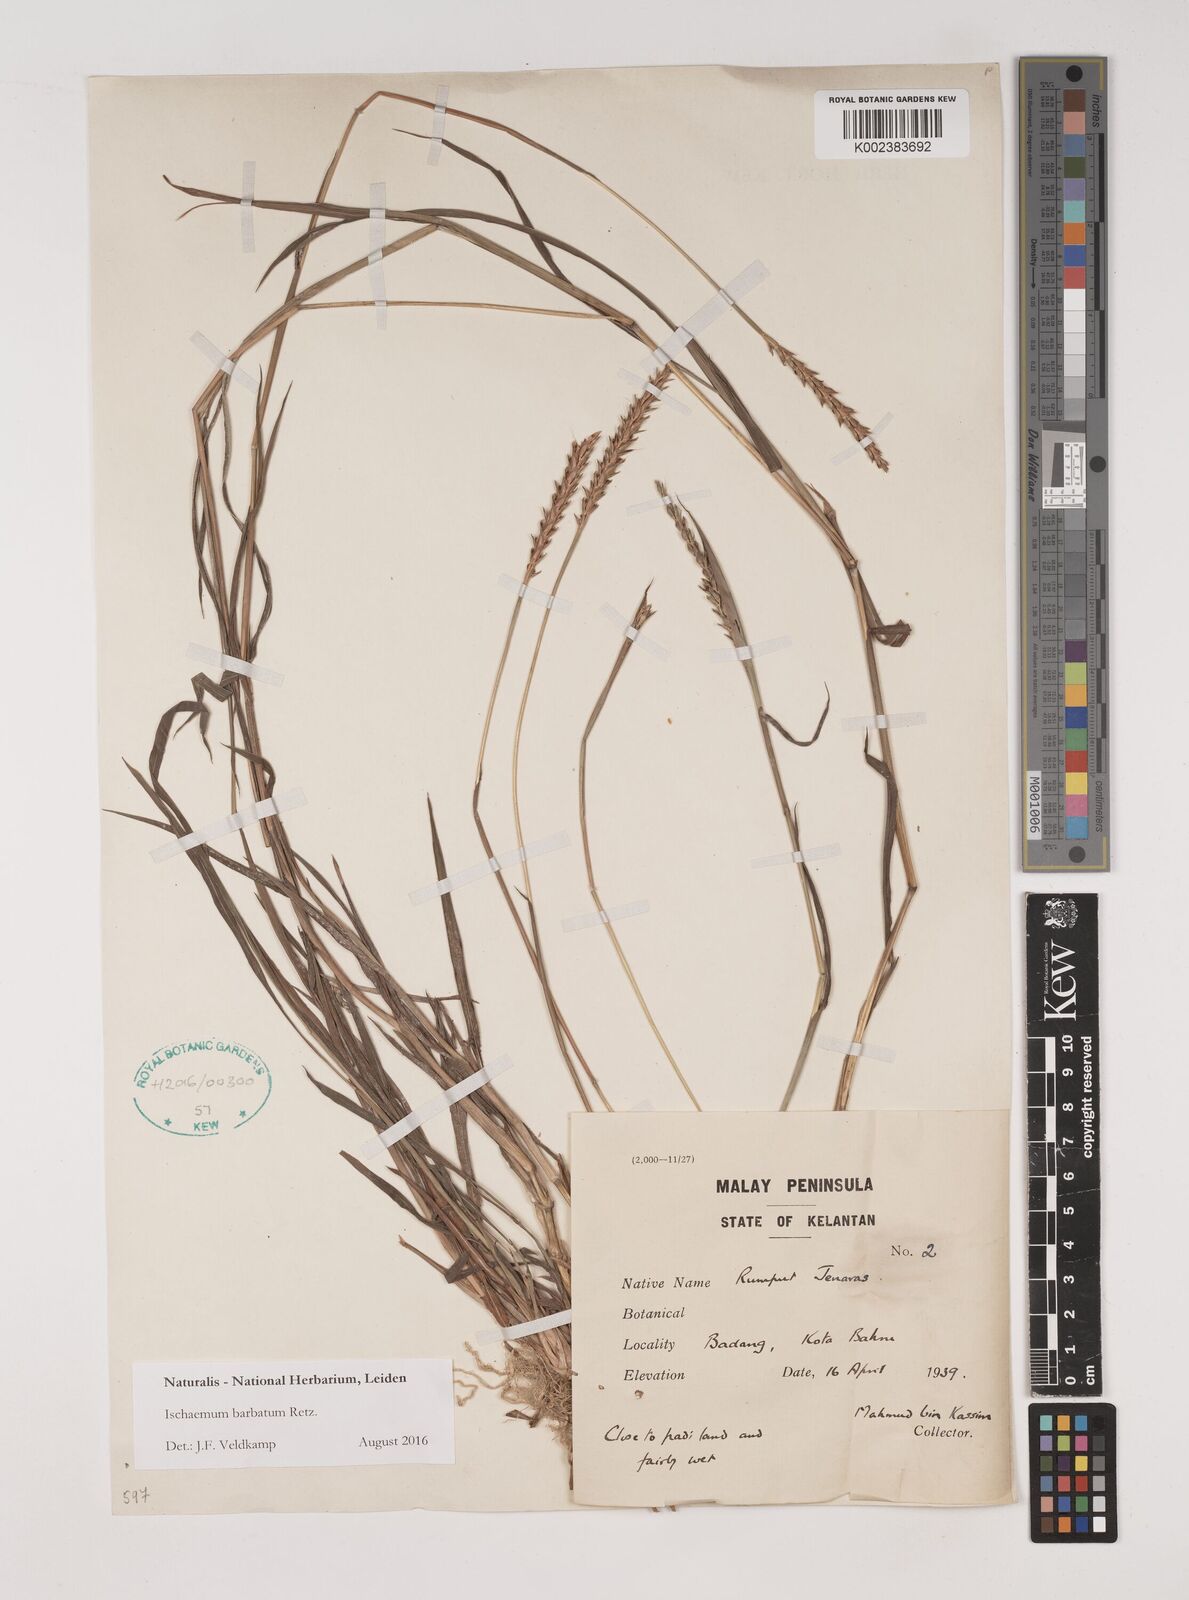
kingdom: Plantae
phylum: Tracheophyta
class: Liliopsida
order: Poales
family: Poaceae
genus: Ischaemum
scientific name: Ischaemum barbatum
